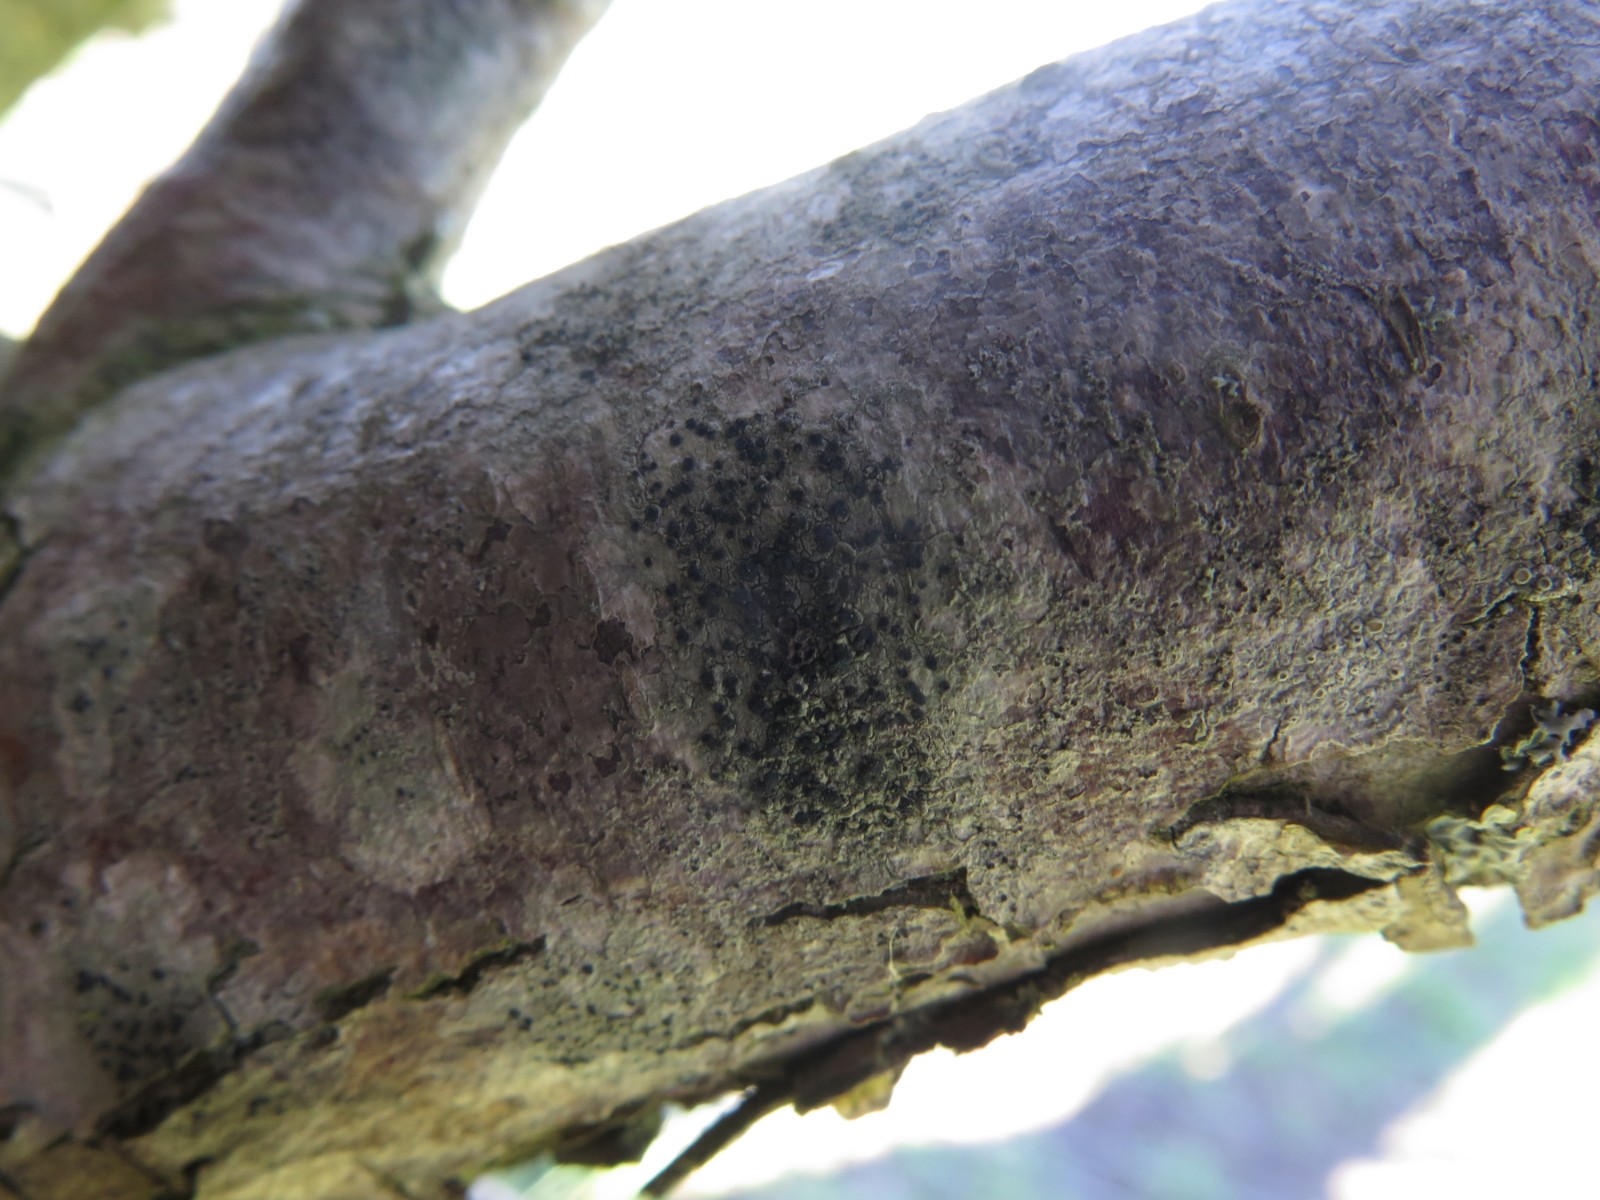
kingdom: Fungi
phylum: Ascomycota
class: Lecanoromycetes
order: Lecanorales
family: Lecanoraceae
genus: Lecidella
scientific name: Lecidella elaeochroma
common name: grågrøn skivelav
